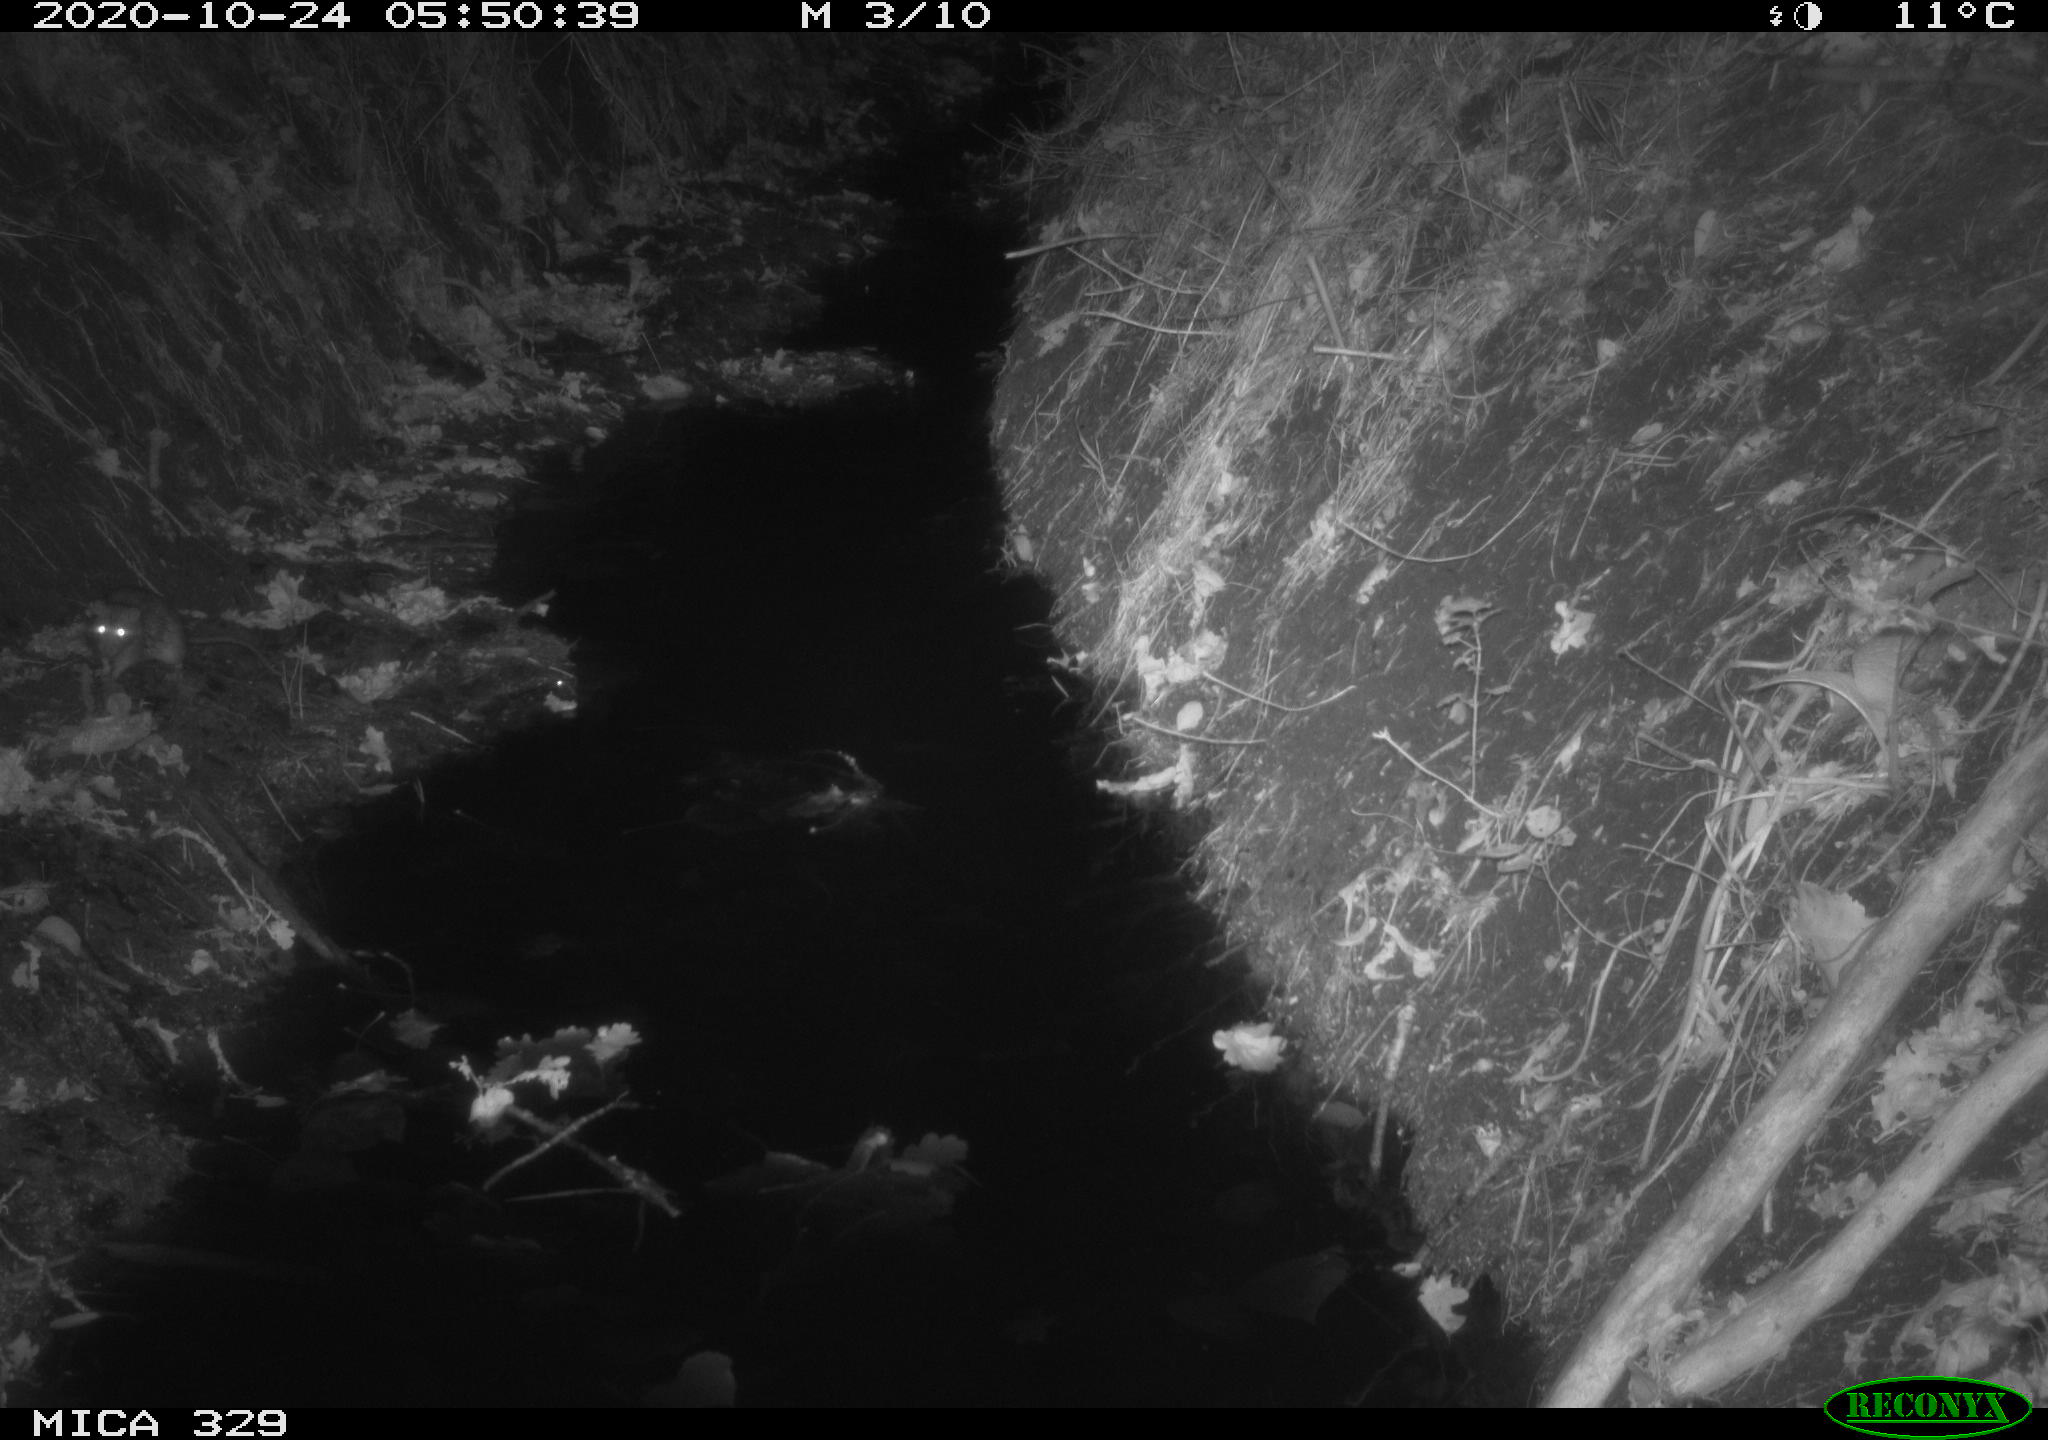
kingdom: Animalia
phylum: Chordata
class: Mammalia
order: Rodentia
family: Muridae
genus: Rattus
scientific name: Rattus norvegicus
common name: Brown rat
